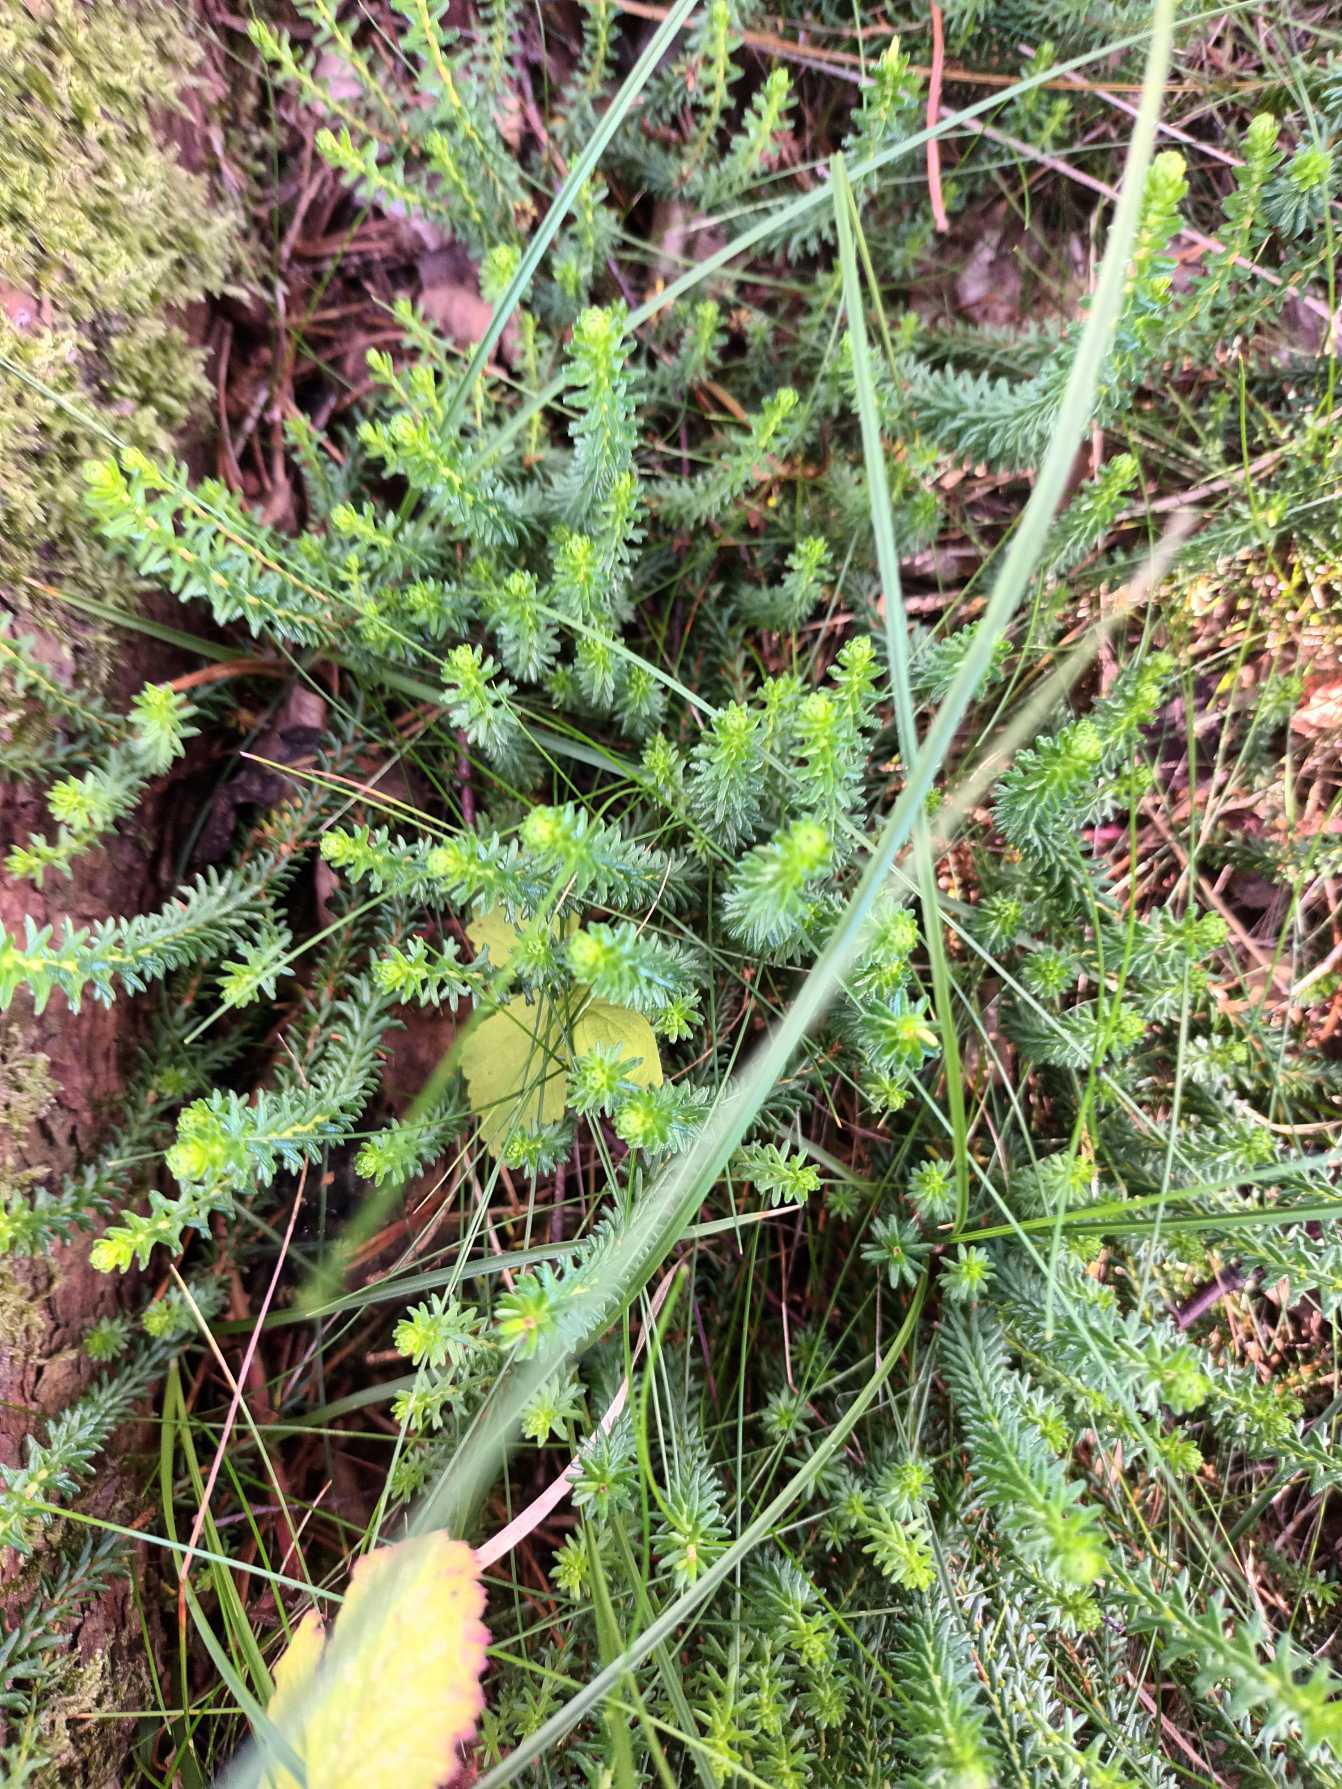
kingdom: Plantae
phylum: Tracheophyta
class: Magnoliopsida
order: Ericales
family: Ericaceae
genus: Empetrum
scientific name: Empetrum nigrum
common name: Revling
